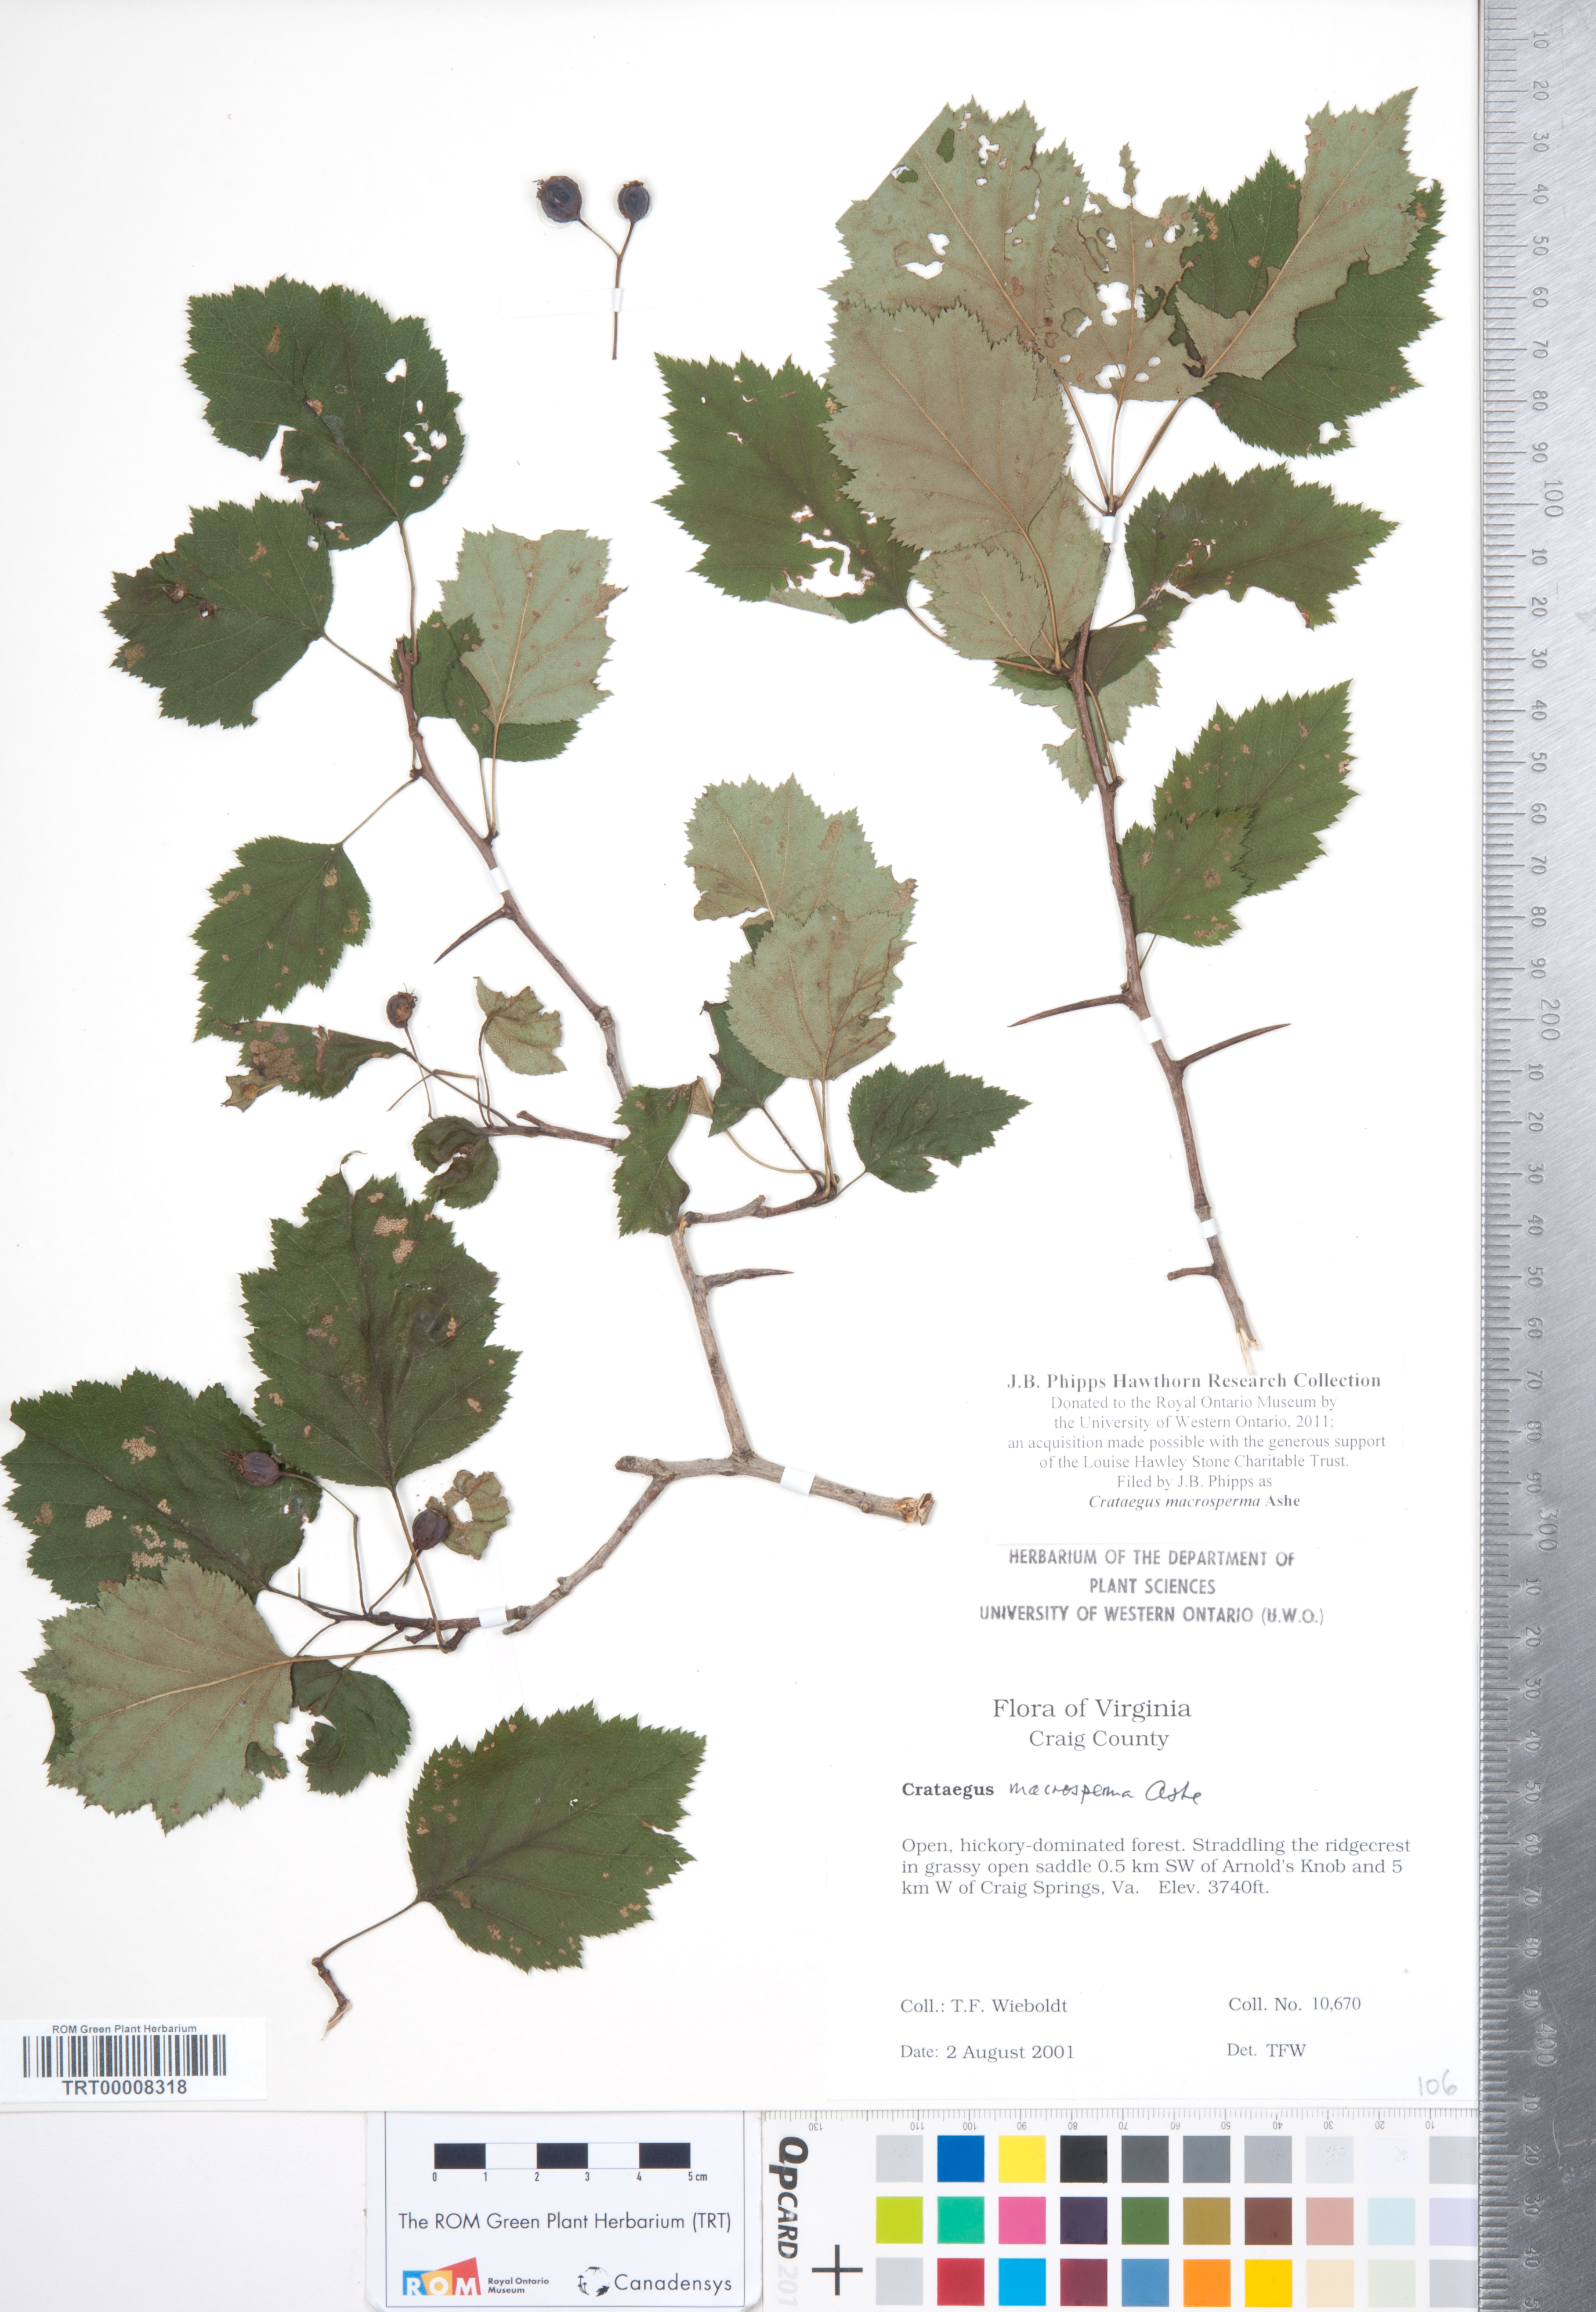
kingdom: Plantae
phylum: Tracheophyta
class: Magnoliopsida
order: Rosales
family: Rosaceae
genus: Crataegus
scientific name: Crataegus macrosperma
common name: Variable hawthorn
